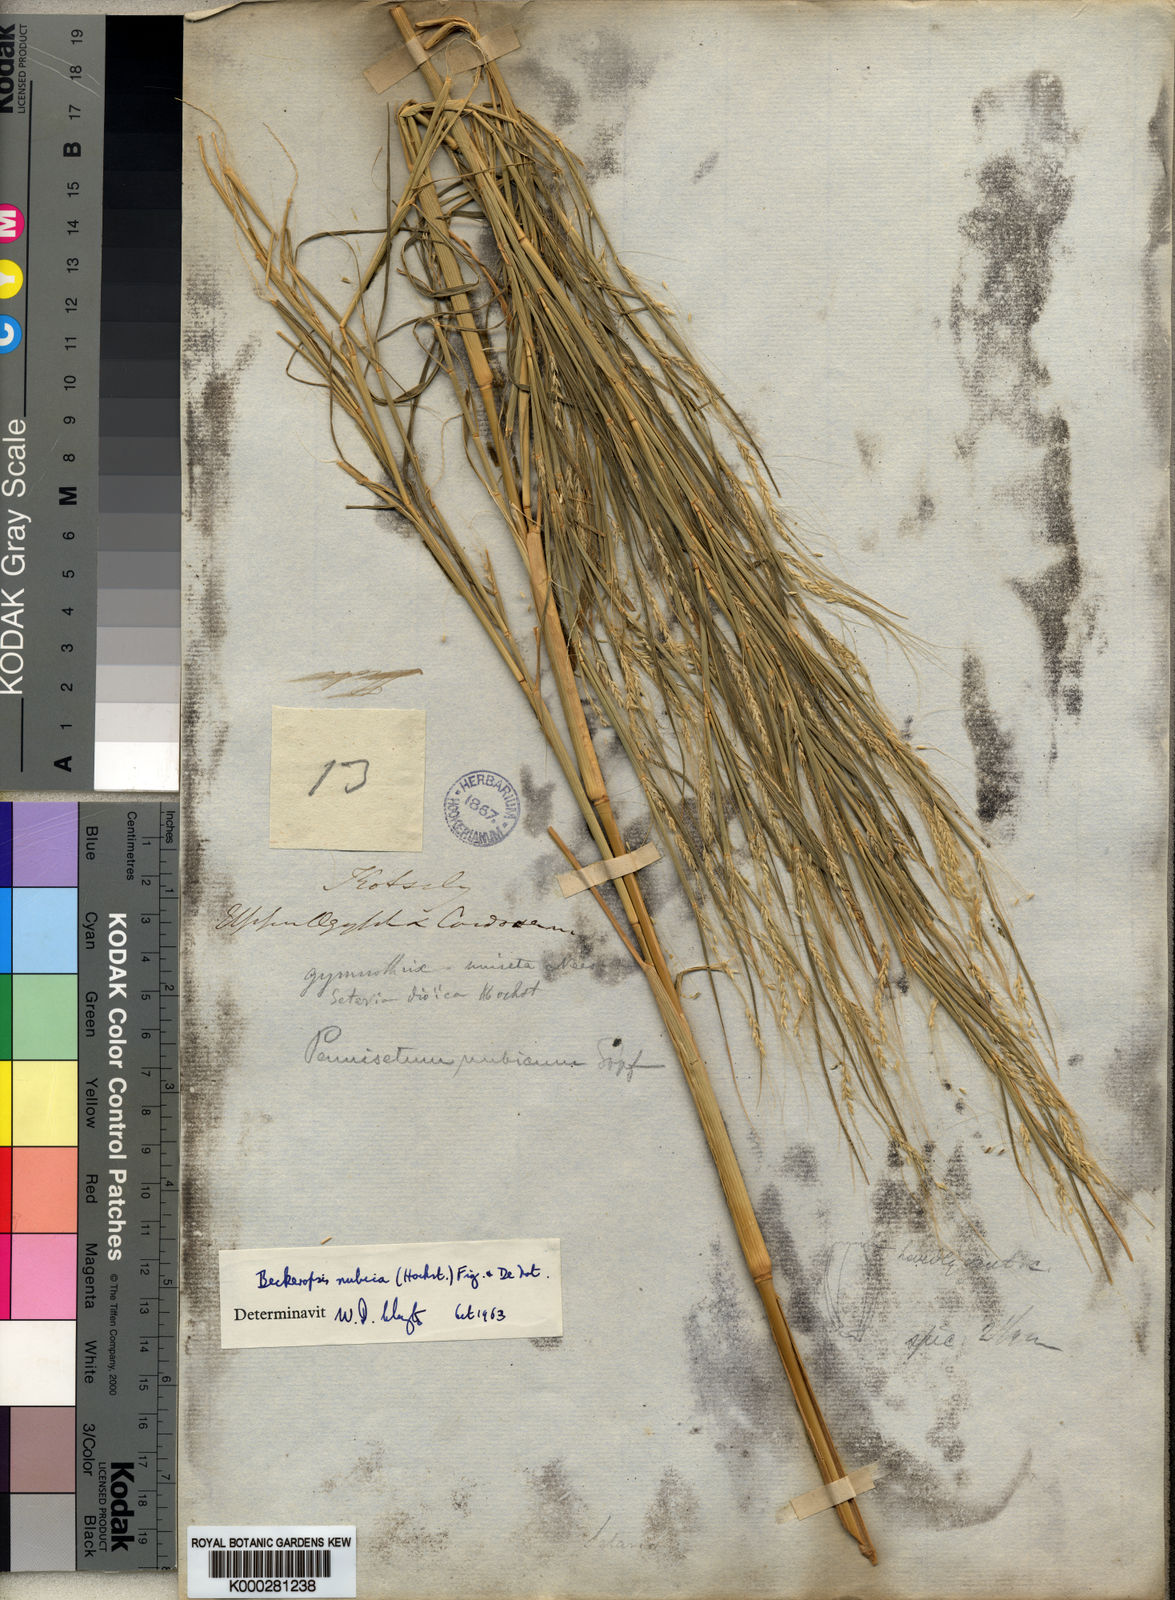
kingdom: Plantae
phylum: Tracheophyta
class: Liliopsida
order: Poales
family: Poaceae
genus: Cenchrus
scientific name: Cenchrus Pennisetum spec
